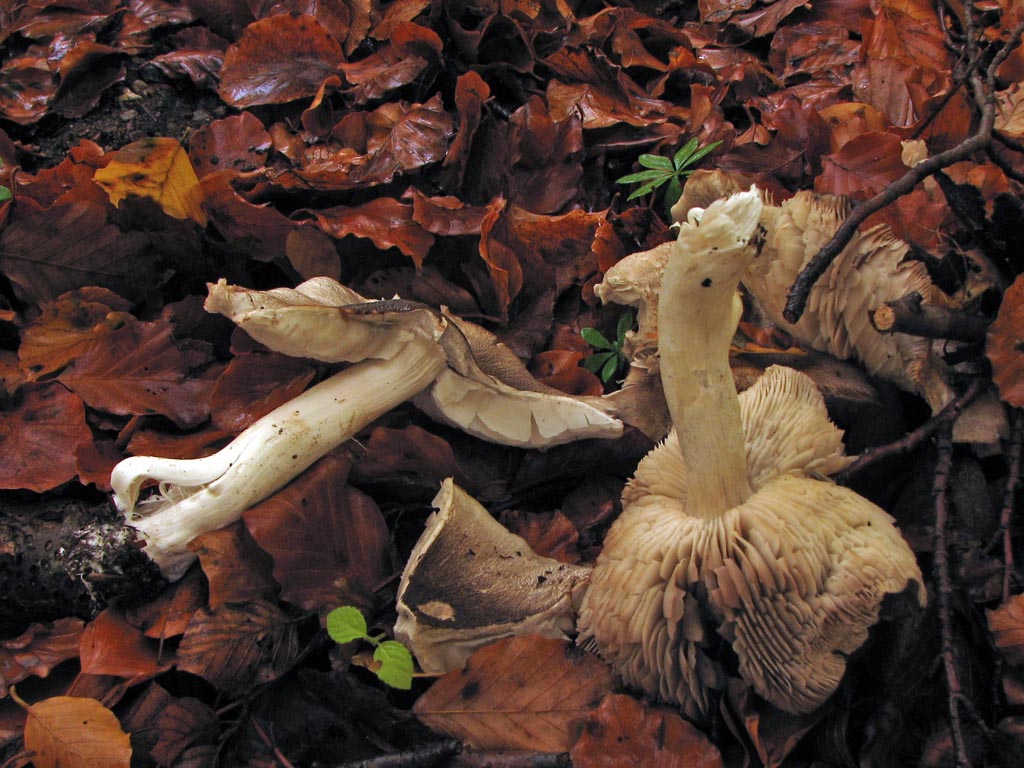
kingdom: Fungi
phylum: Basidiomycota
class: Agaricomycetes
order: Agaricales
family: Tricholomataceae
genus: Tricholoma
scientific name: Tricholoma orirubens
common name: rødbladet ridderhat
